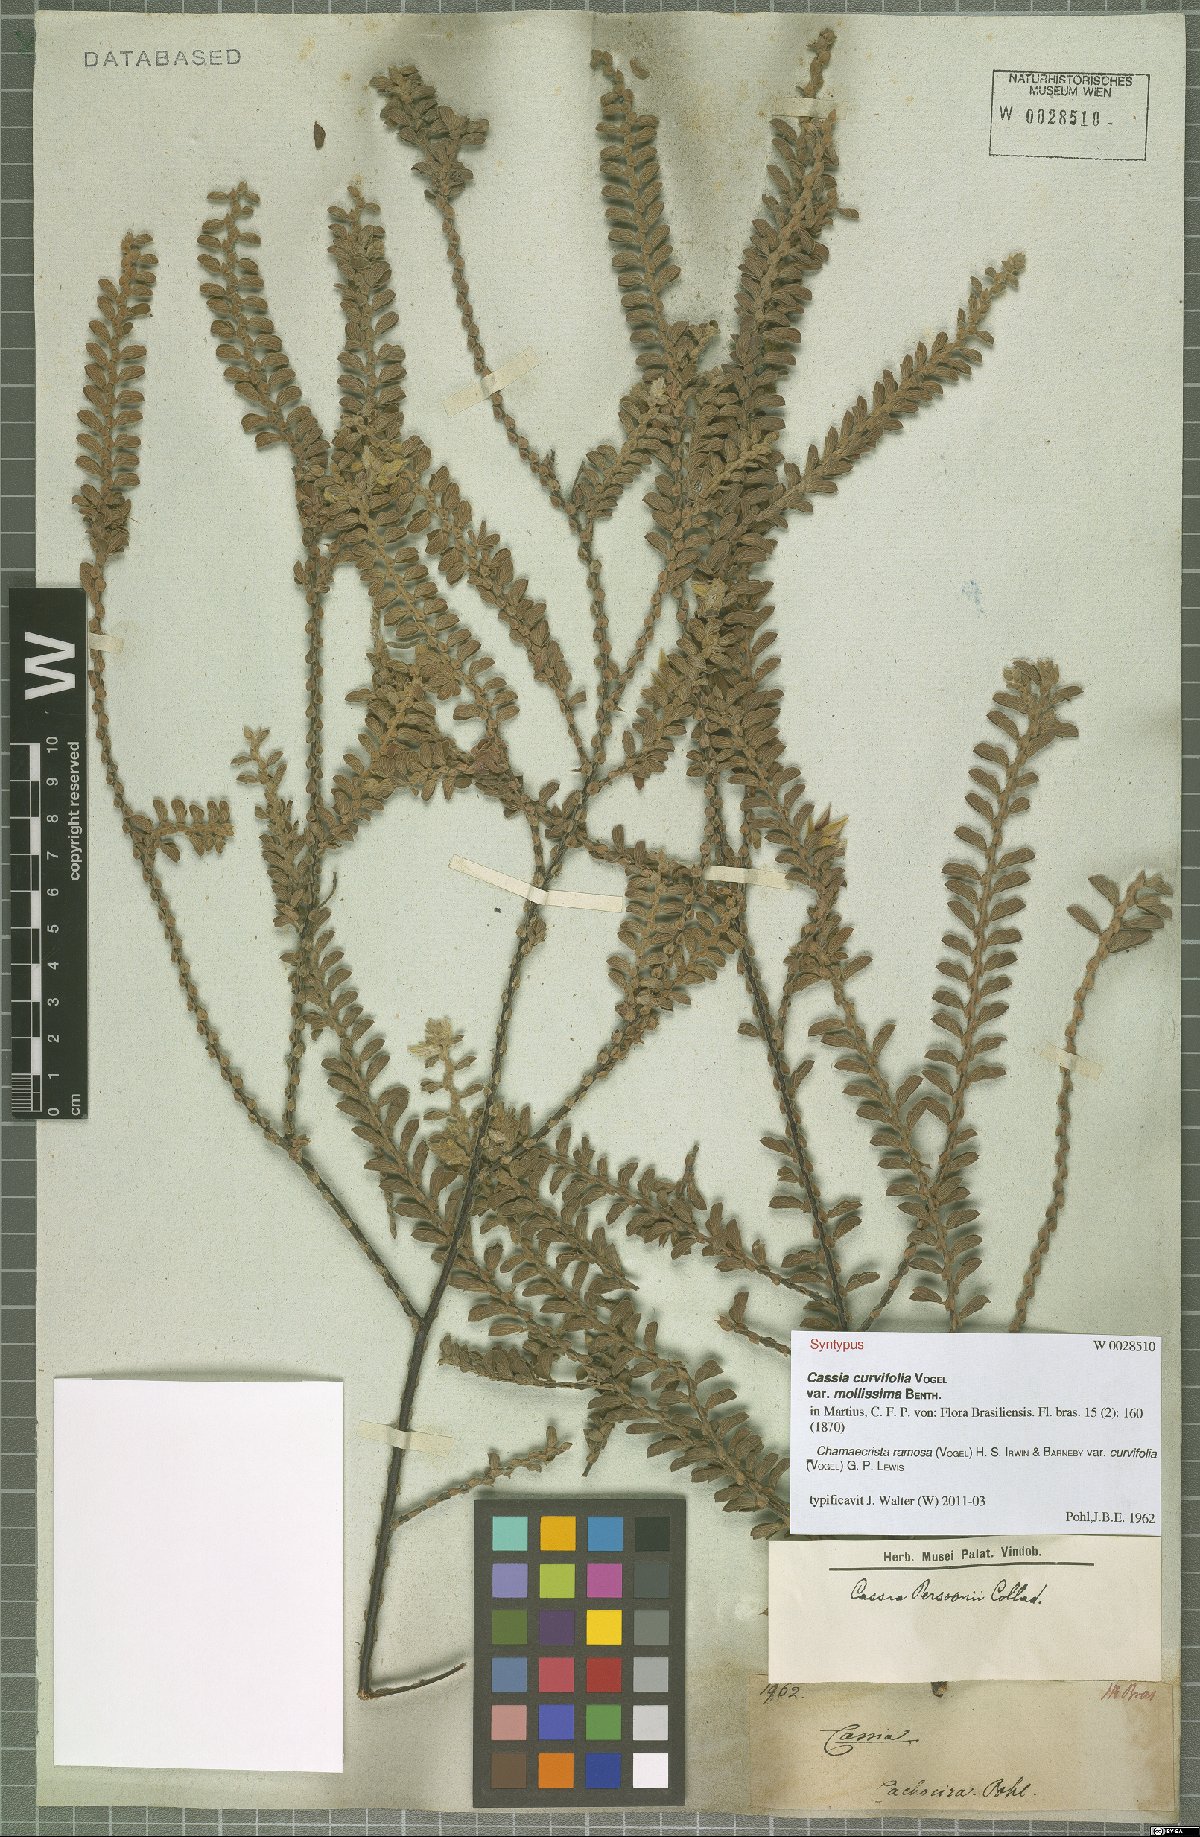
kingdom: Plantae
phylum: Tracheophyta
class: Magnoliopsida
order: Fabales
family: Fabaceae
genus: Chamaecrista
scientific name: Chamaecrista ramosa
